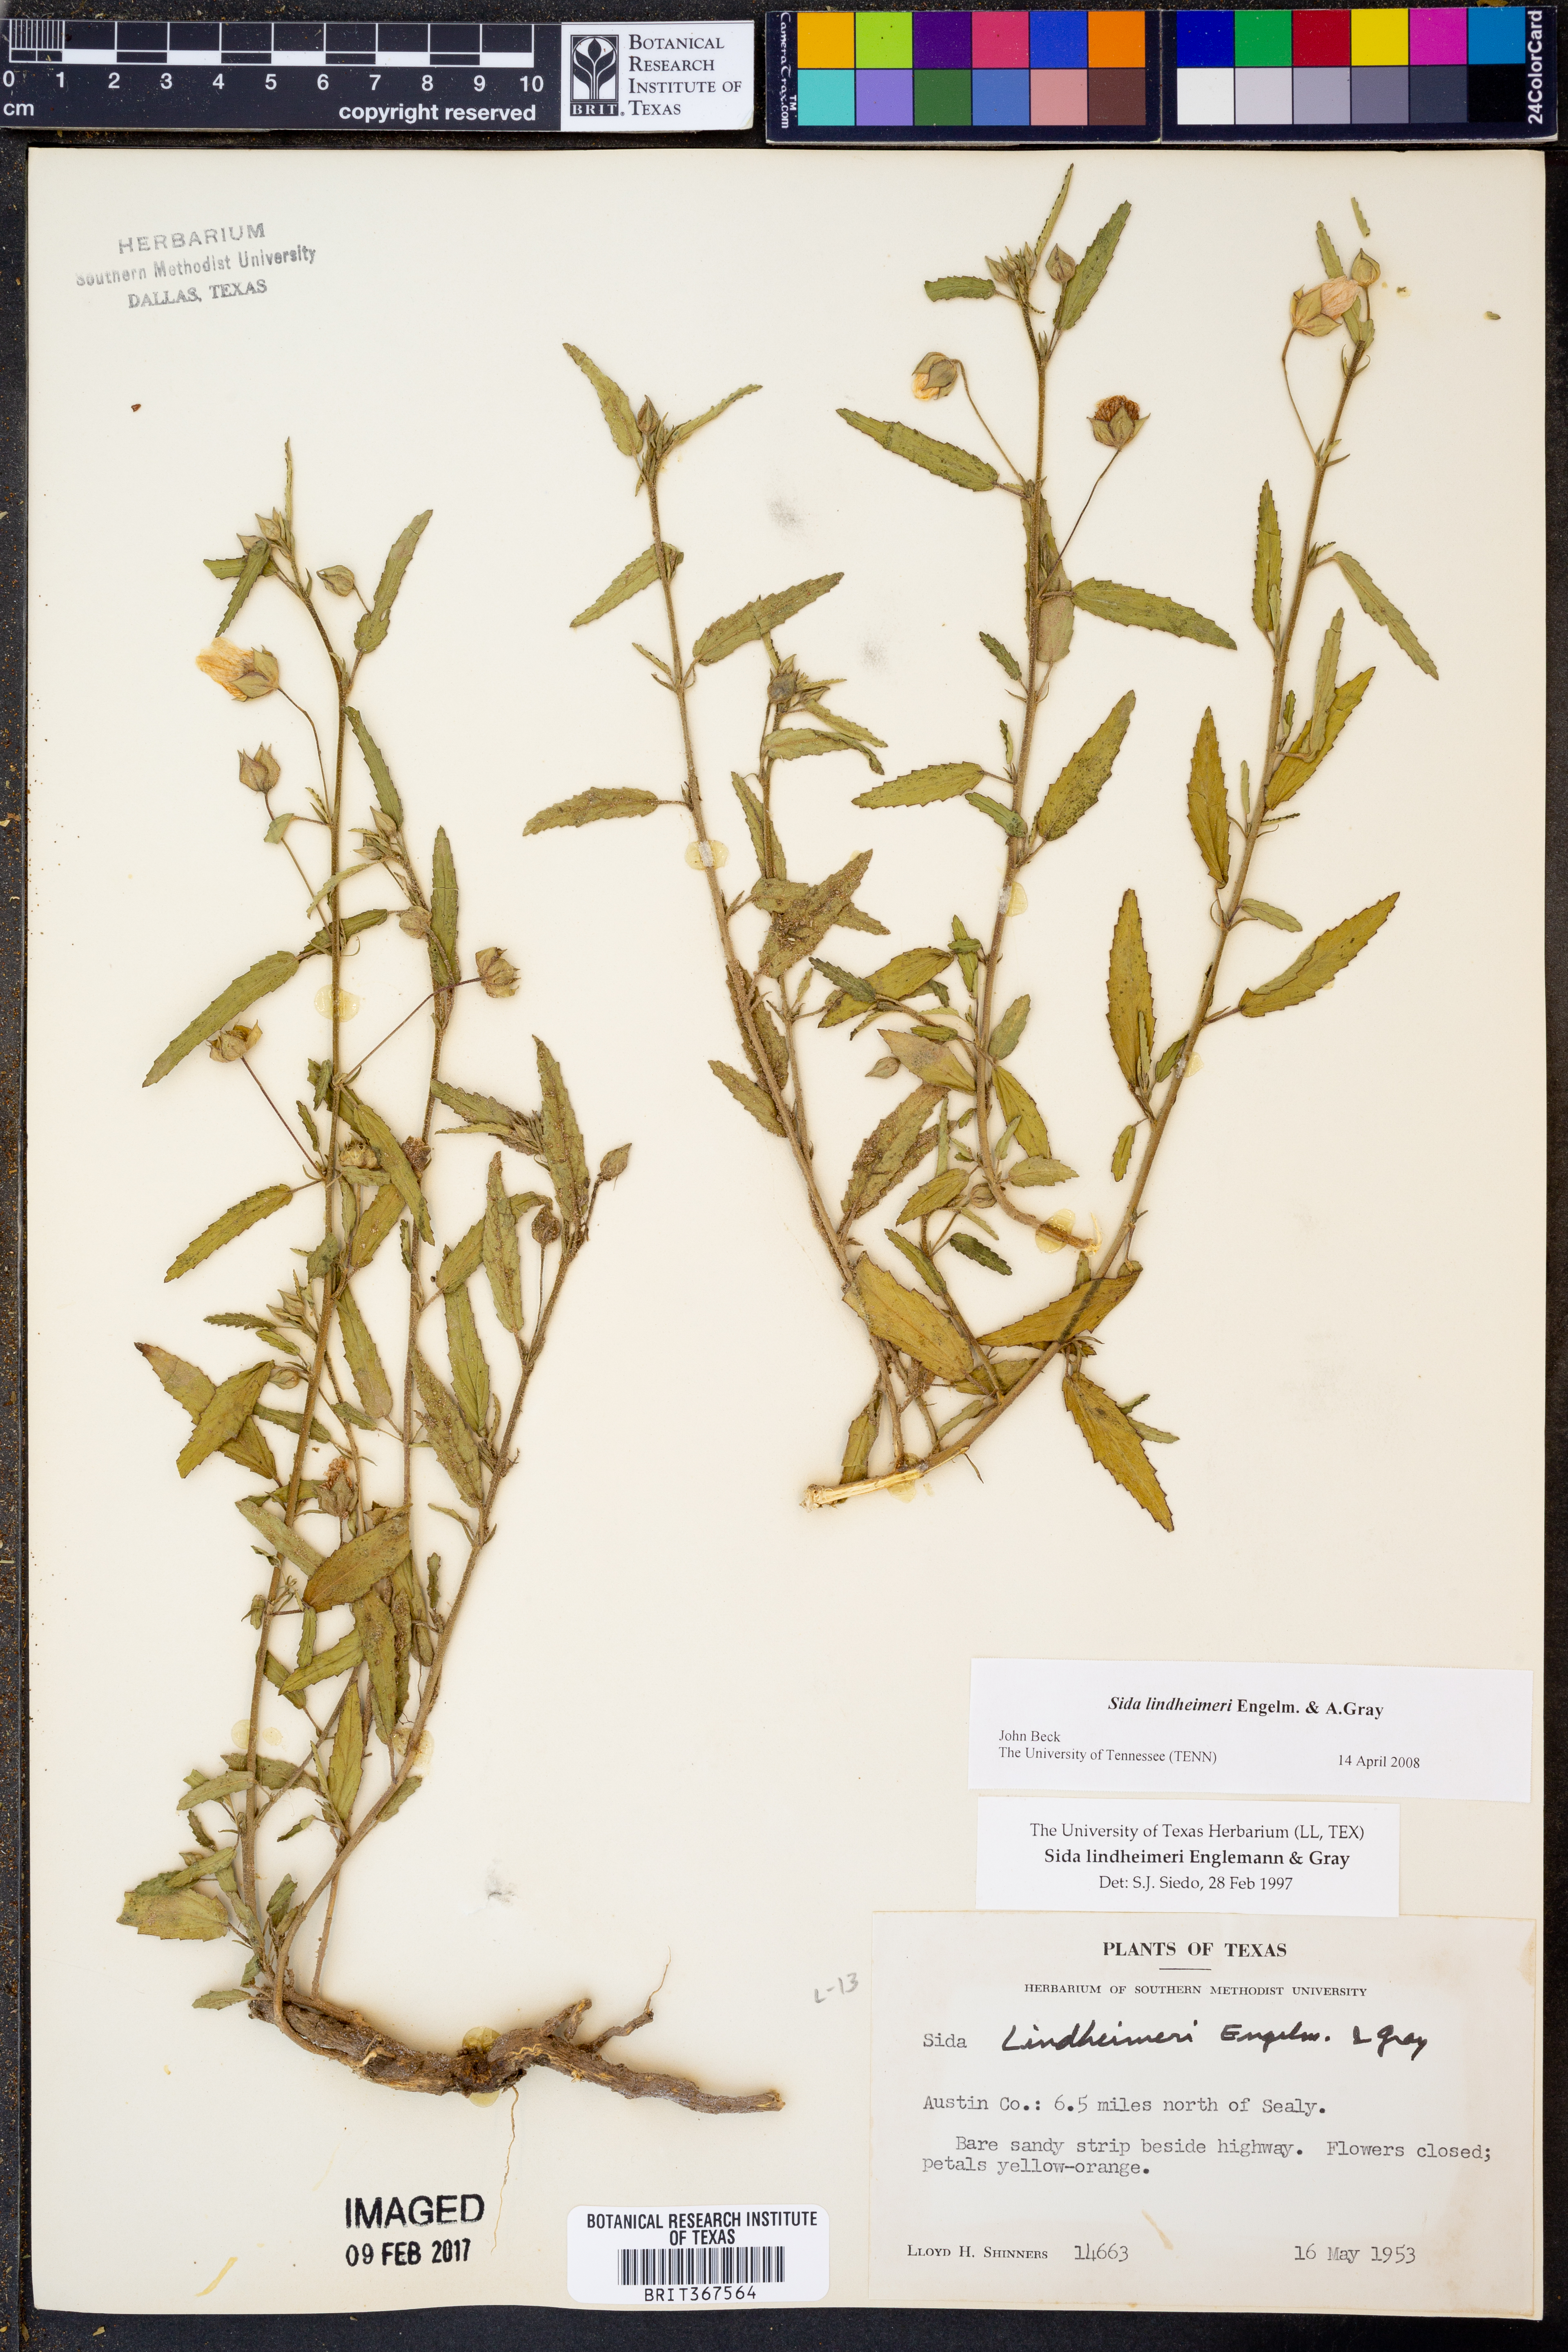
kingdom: Plantae
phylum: Tracheophyta
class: Magnoliopsida
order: Malvales
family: Malvaceae
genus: Sida
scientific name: Sida lindheimeri
